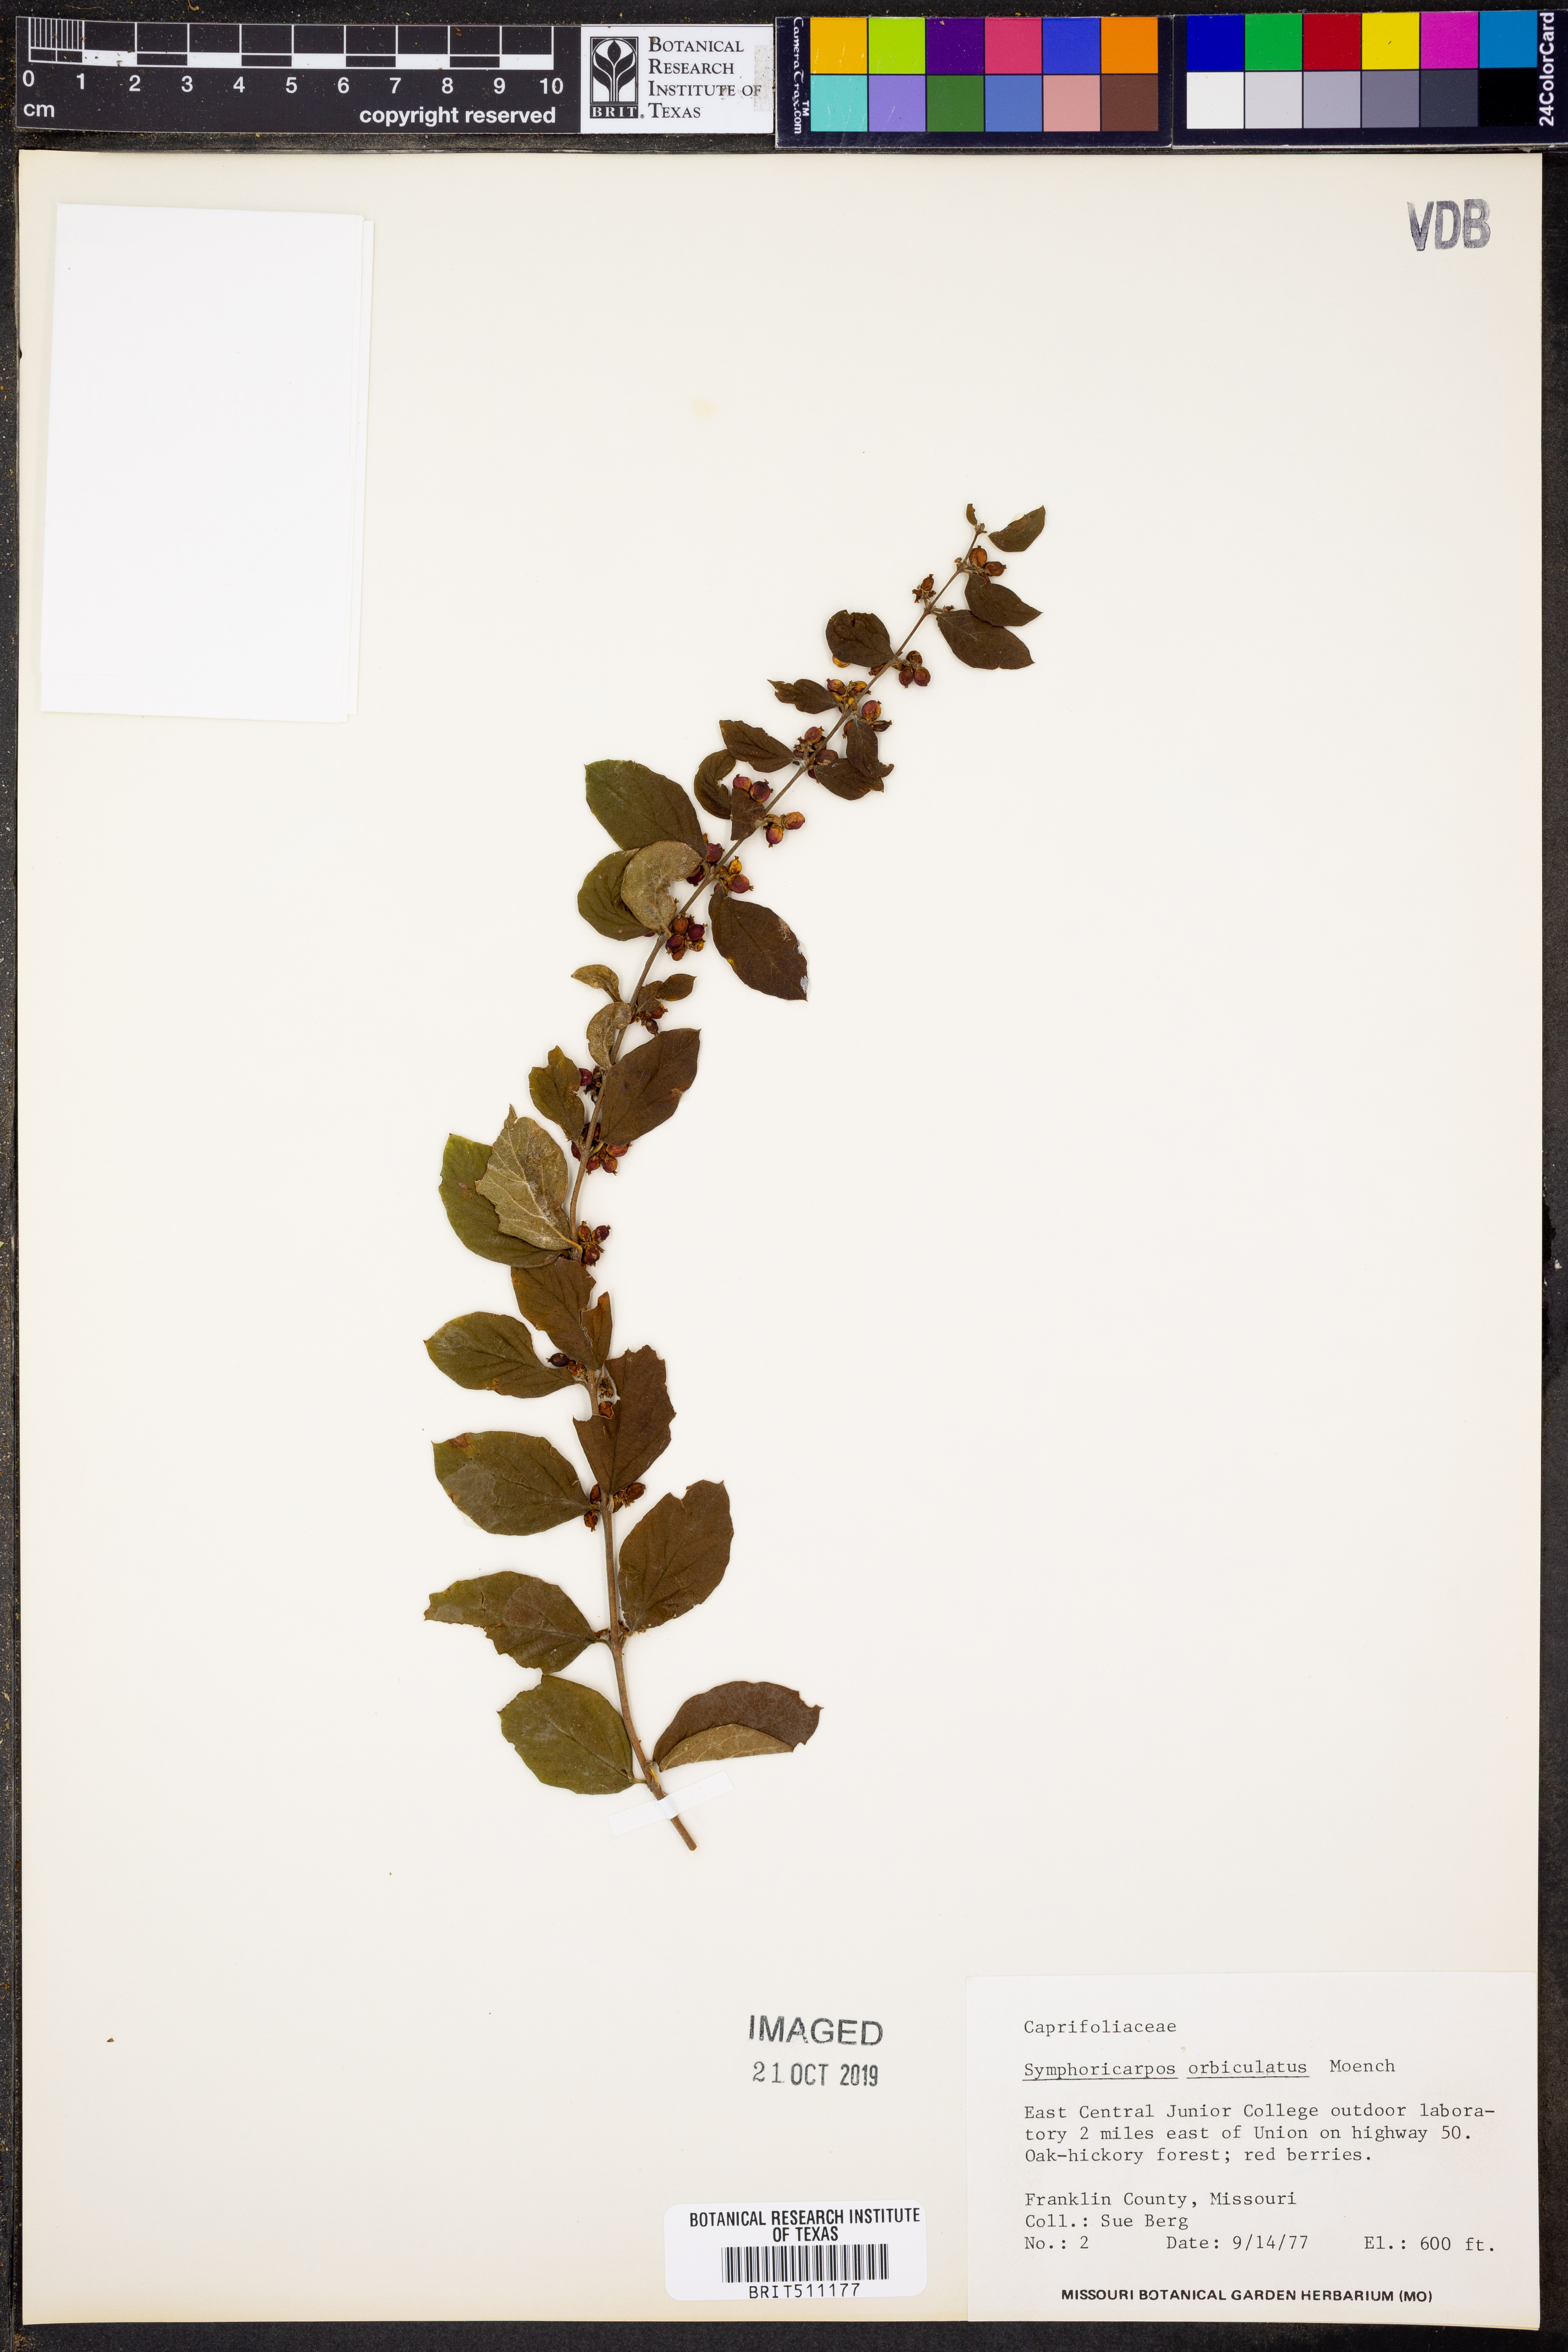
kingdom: Plantae
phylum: Tracheophyta
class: Magnoliopsida
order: Dipsacales
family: Caprifoliaceae
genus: Symphoricarpos
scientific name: Symphoricarpos orbiculatus
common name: Coralberry
